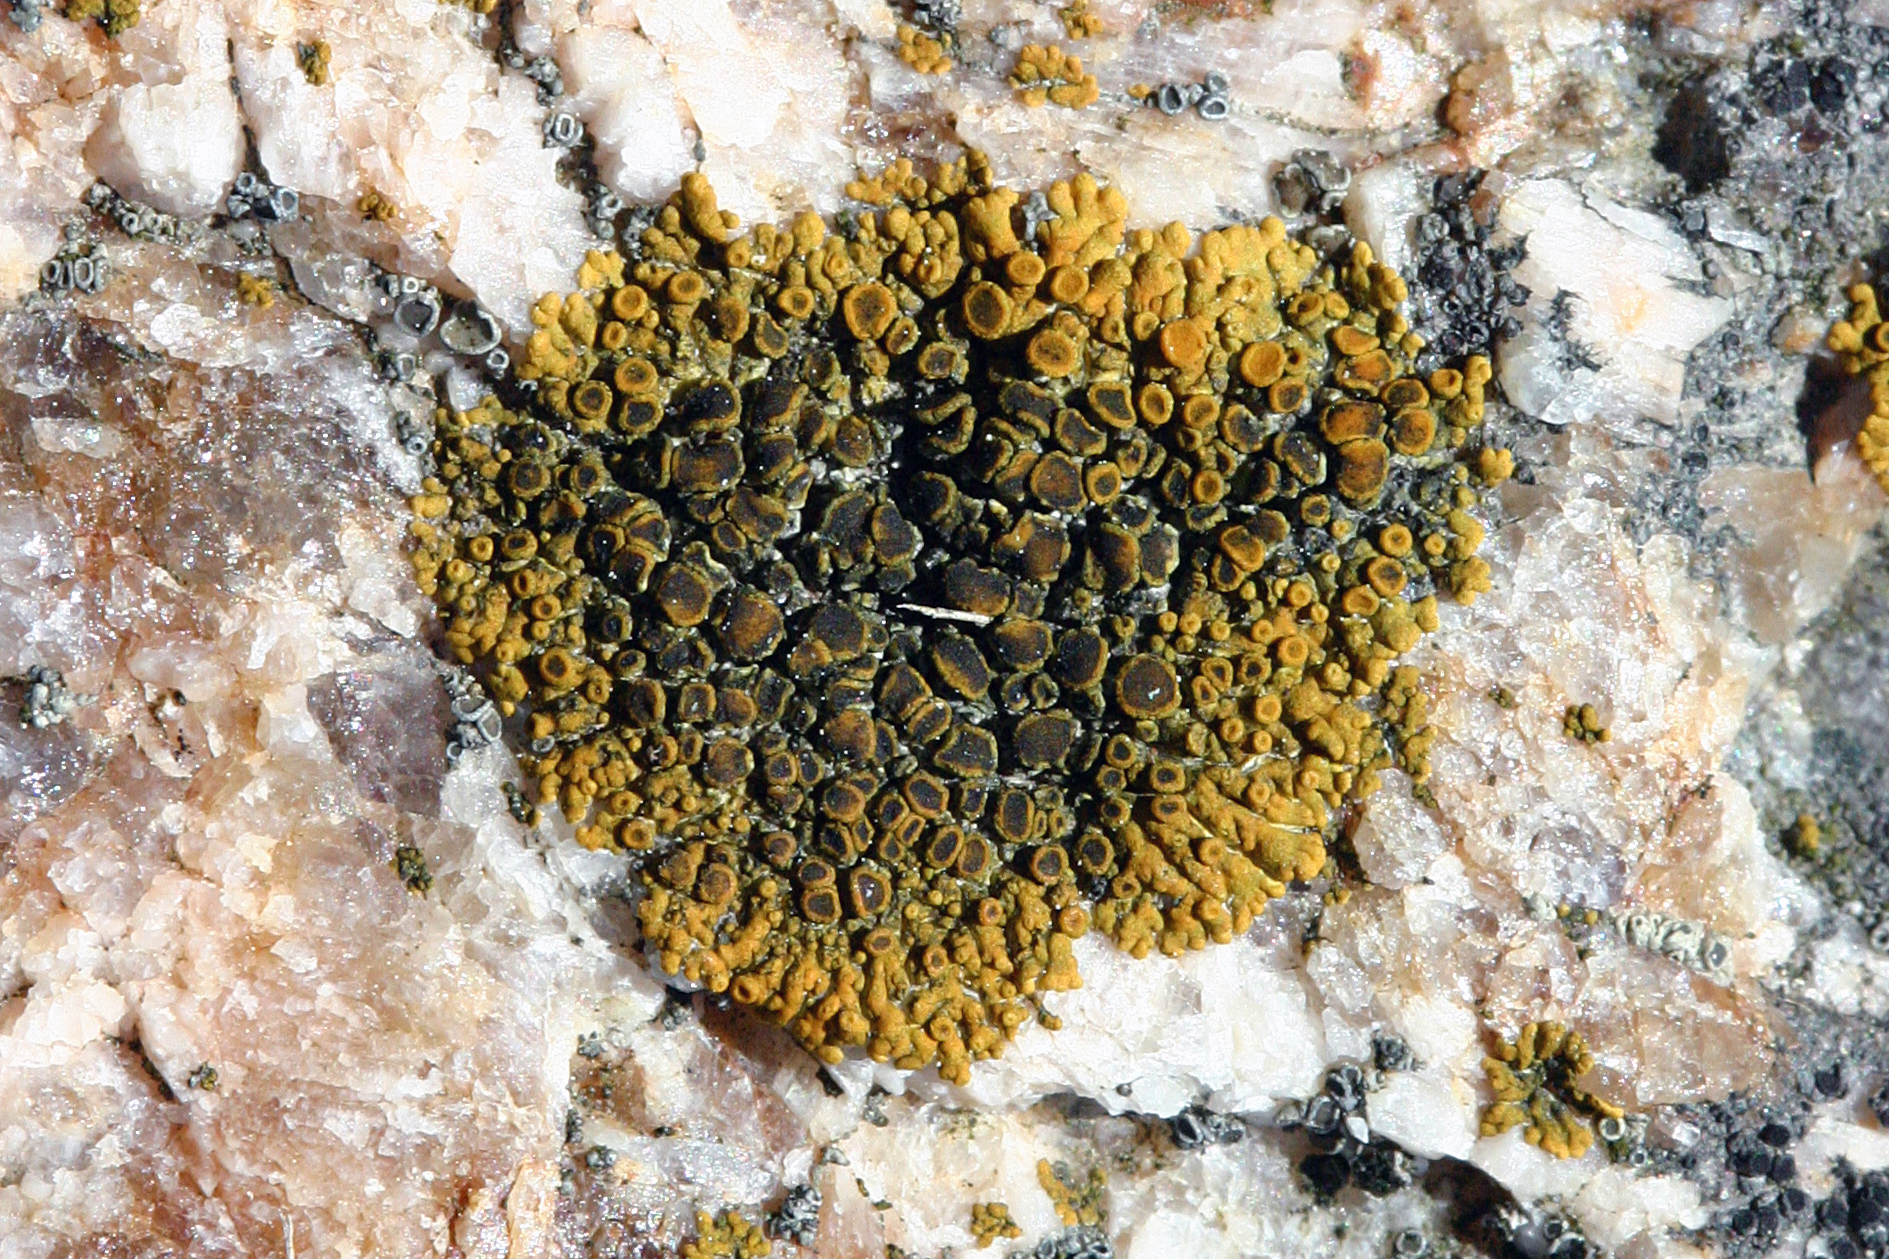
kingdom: Fungi
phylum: Ascomycota
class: Lecanoromycetes
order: Teloschistales
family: Teloschistaceae
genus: Athallia
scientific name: Athallia scopularis
